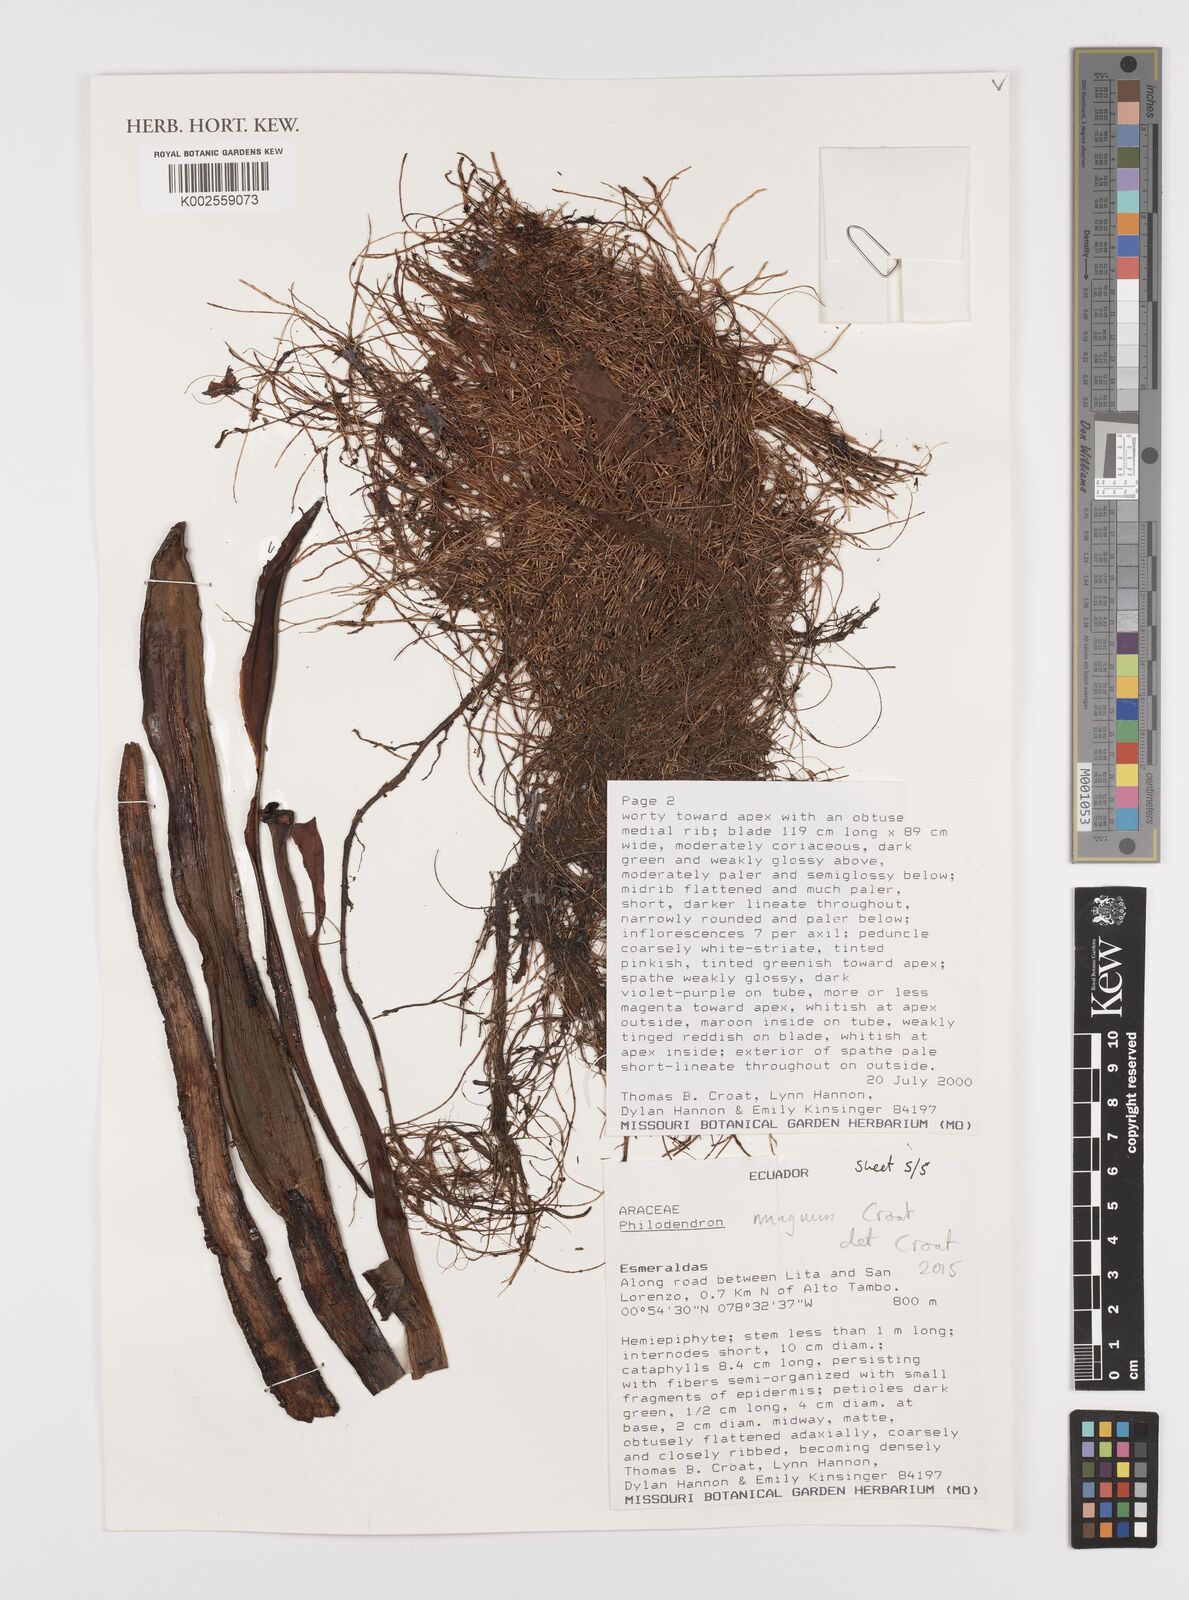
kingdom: Plantae
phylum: Tracheophyta
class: Liliopsida
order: Alismatales
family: Araceae
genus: Philodendron
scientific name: Philodendron magnum
